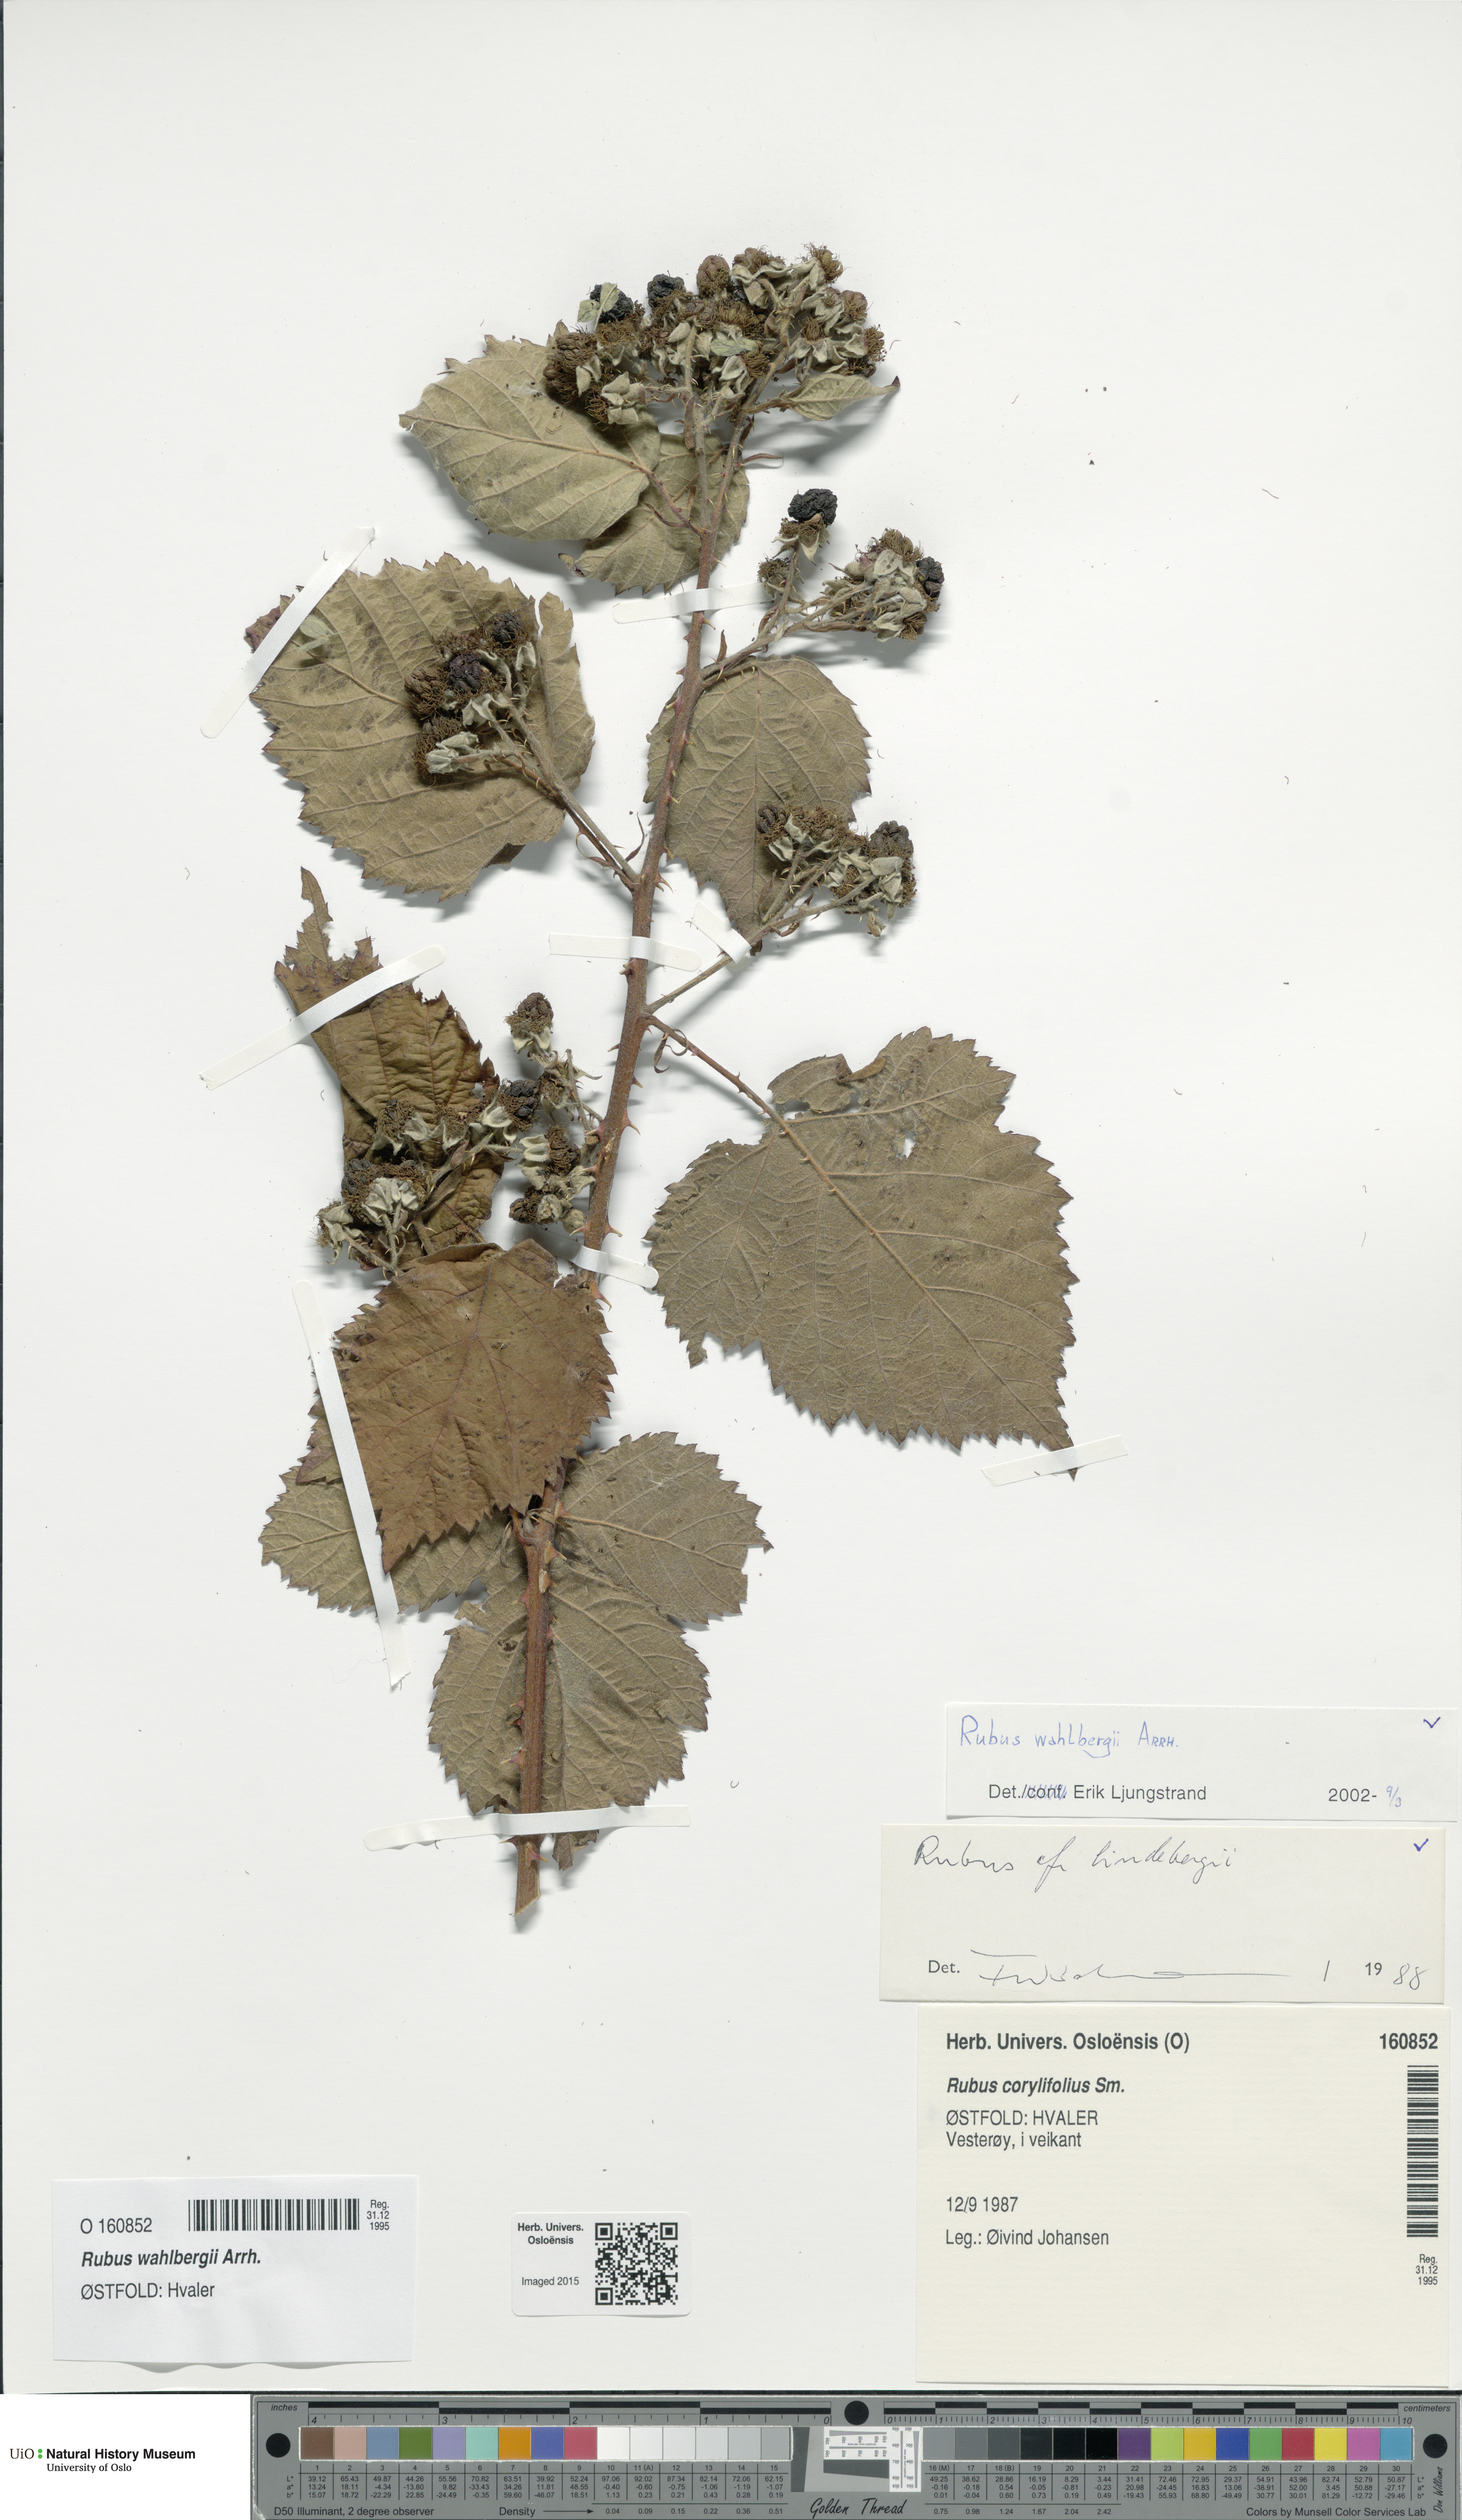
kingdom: Plantae
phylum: Tracheophyta
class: Magnoliopsida
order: Rosales
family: Rosaceae
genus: Rubus
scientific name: Rubus wahlbergii
